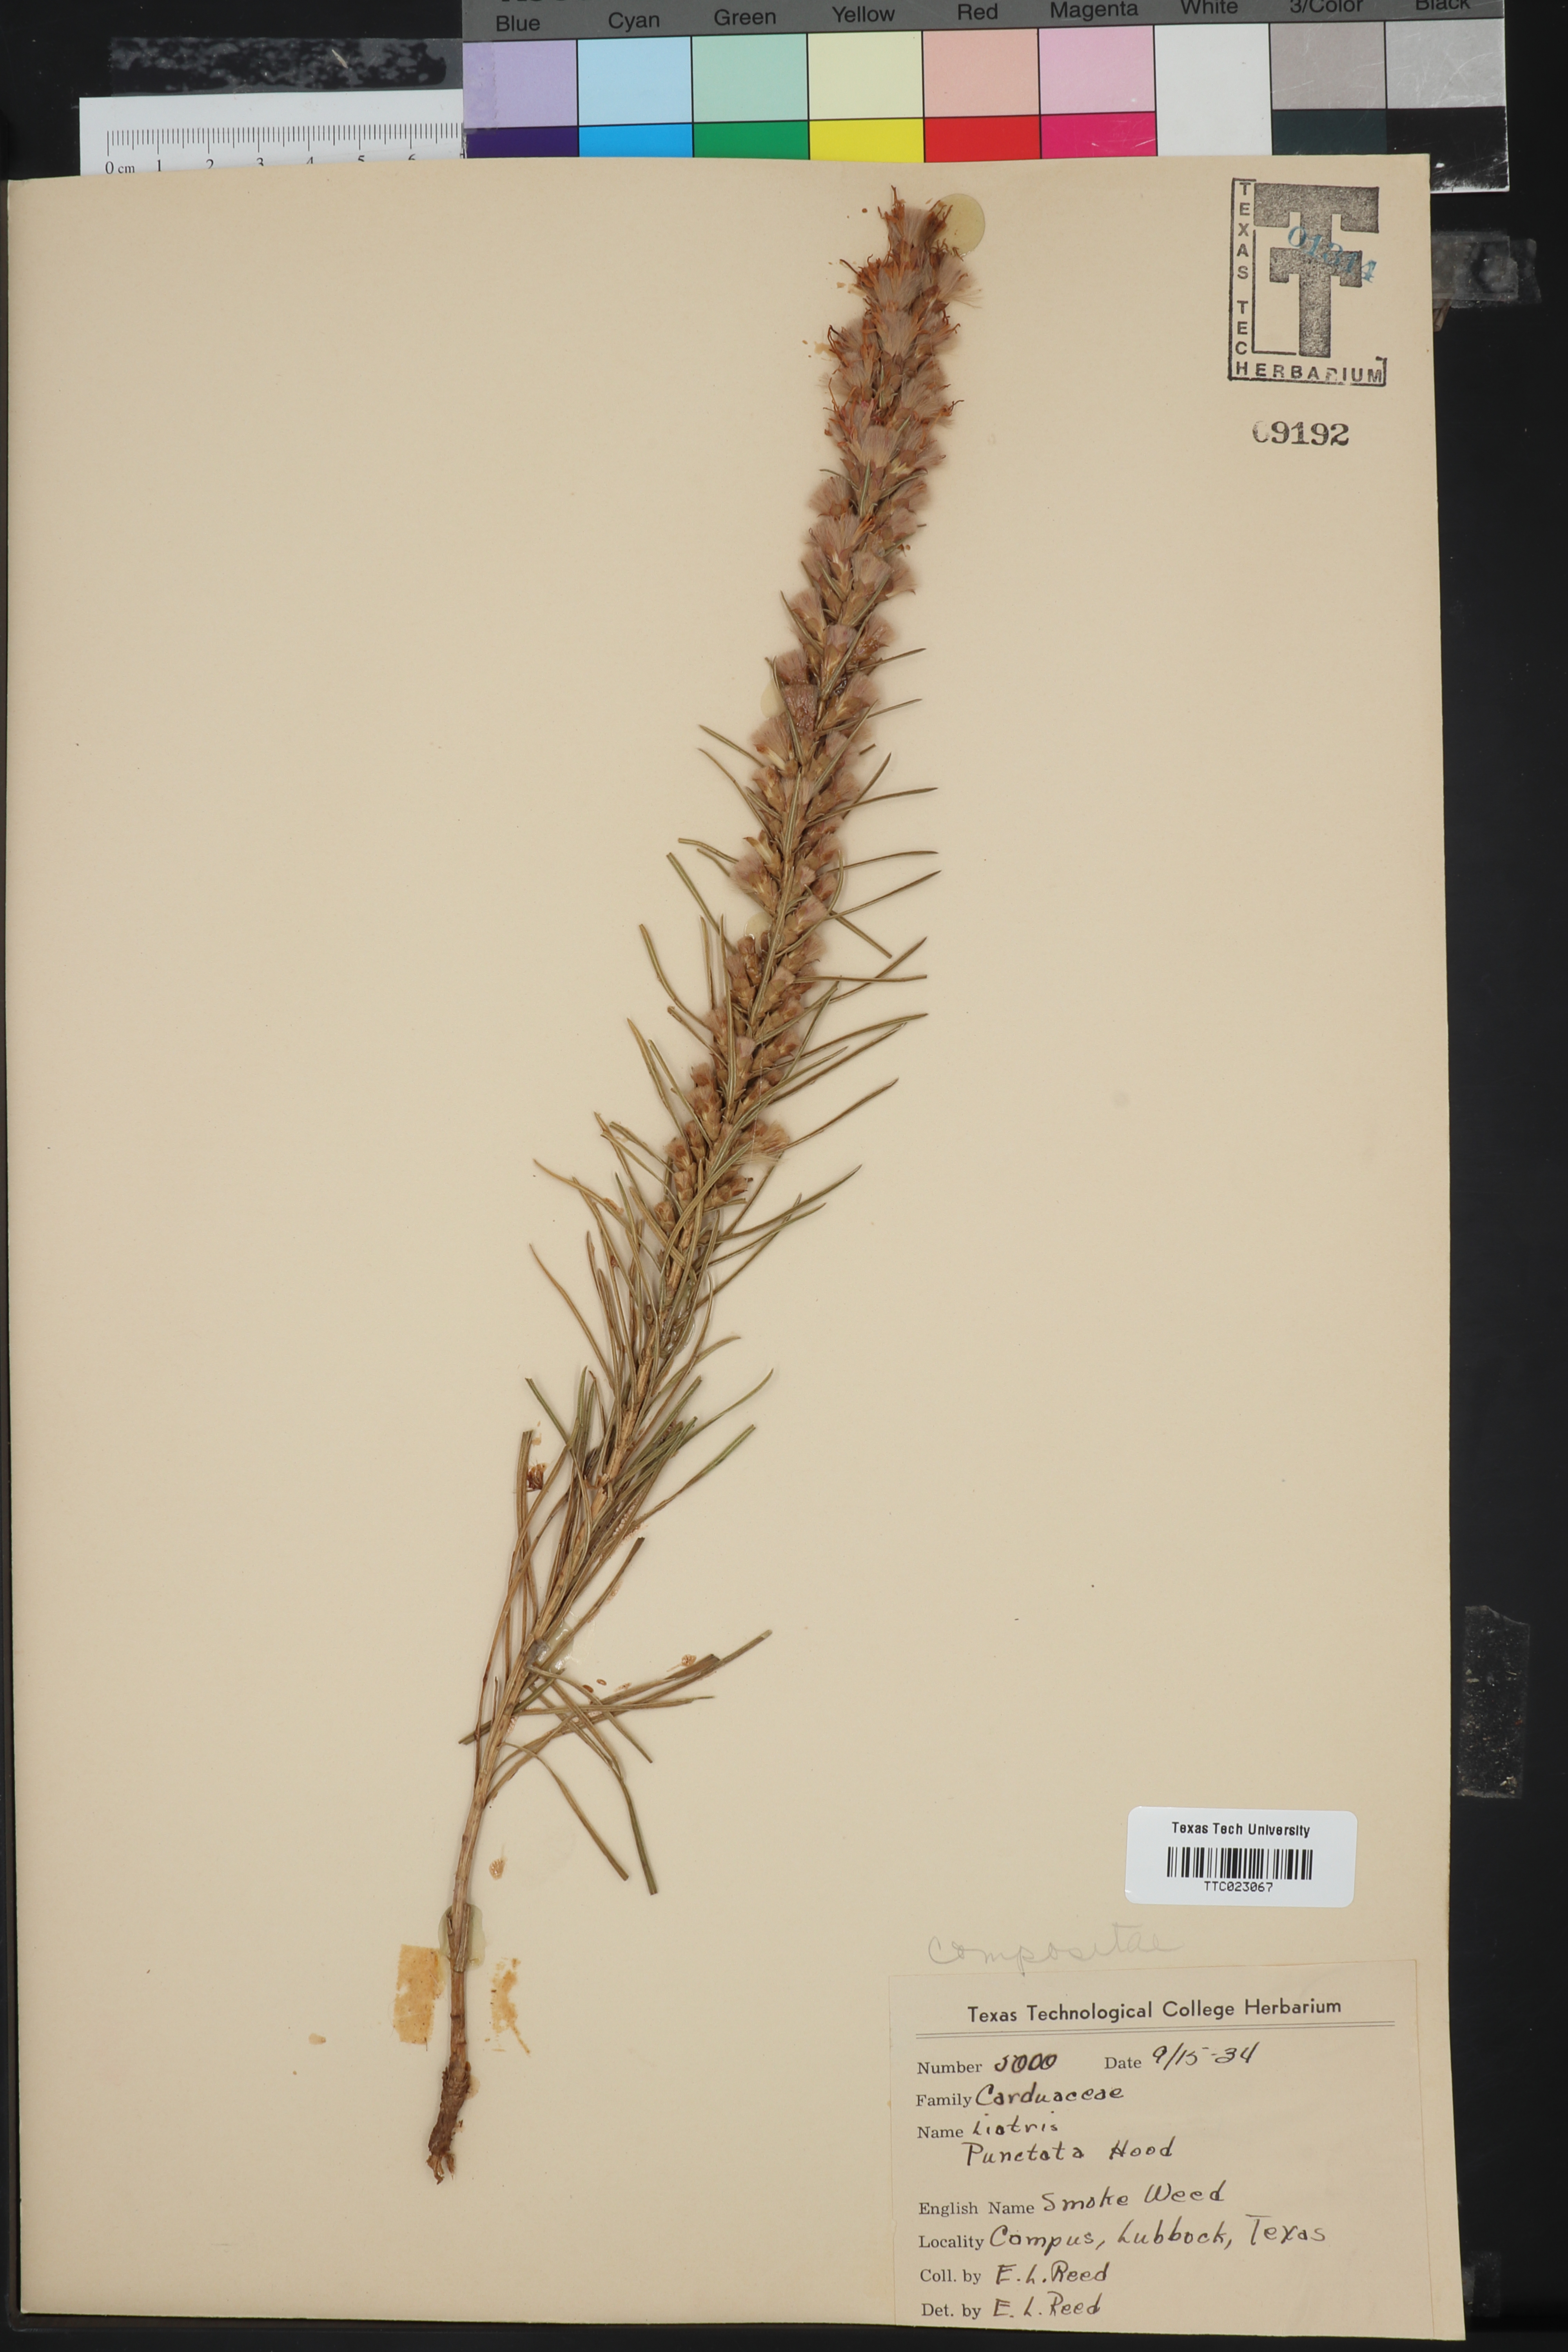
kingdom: Plantae
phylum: Tracheophyta
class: Magnoliopsida
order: Asterales
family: Asteraceae
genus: Liatris
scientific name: Liatris punctata
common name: Dotted gayfeather
